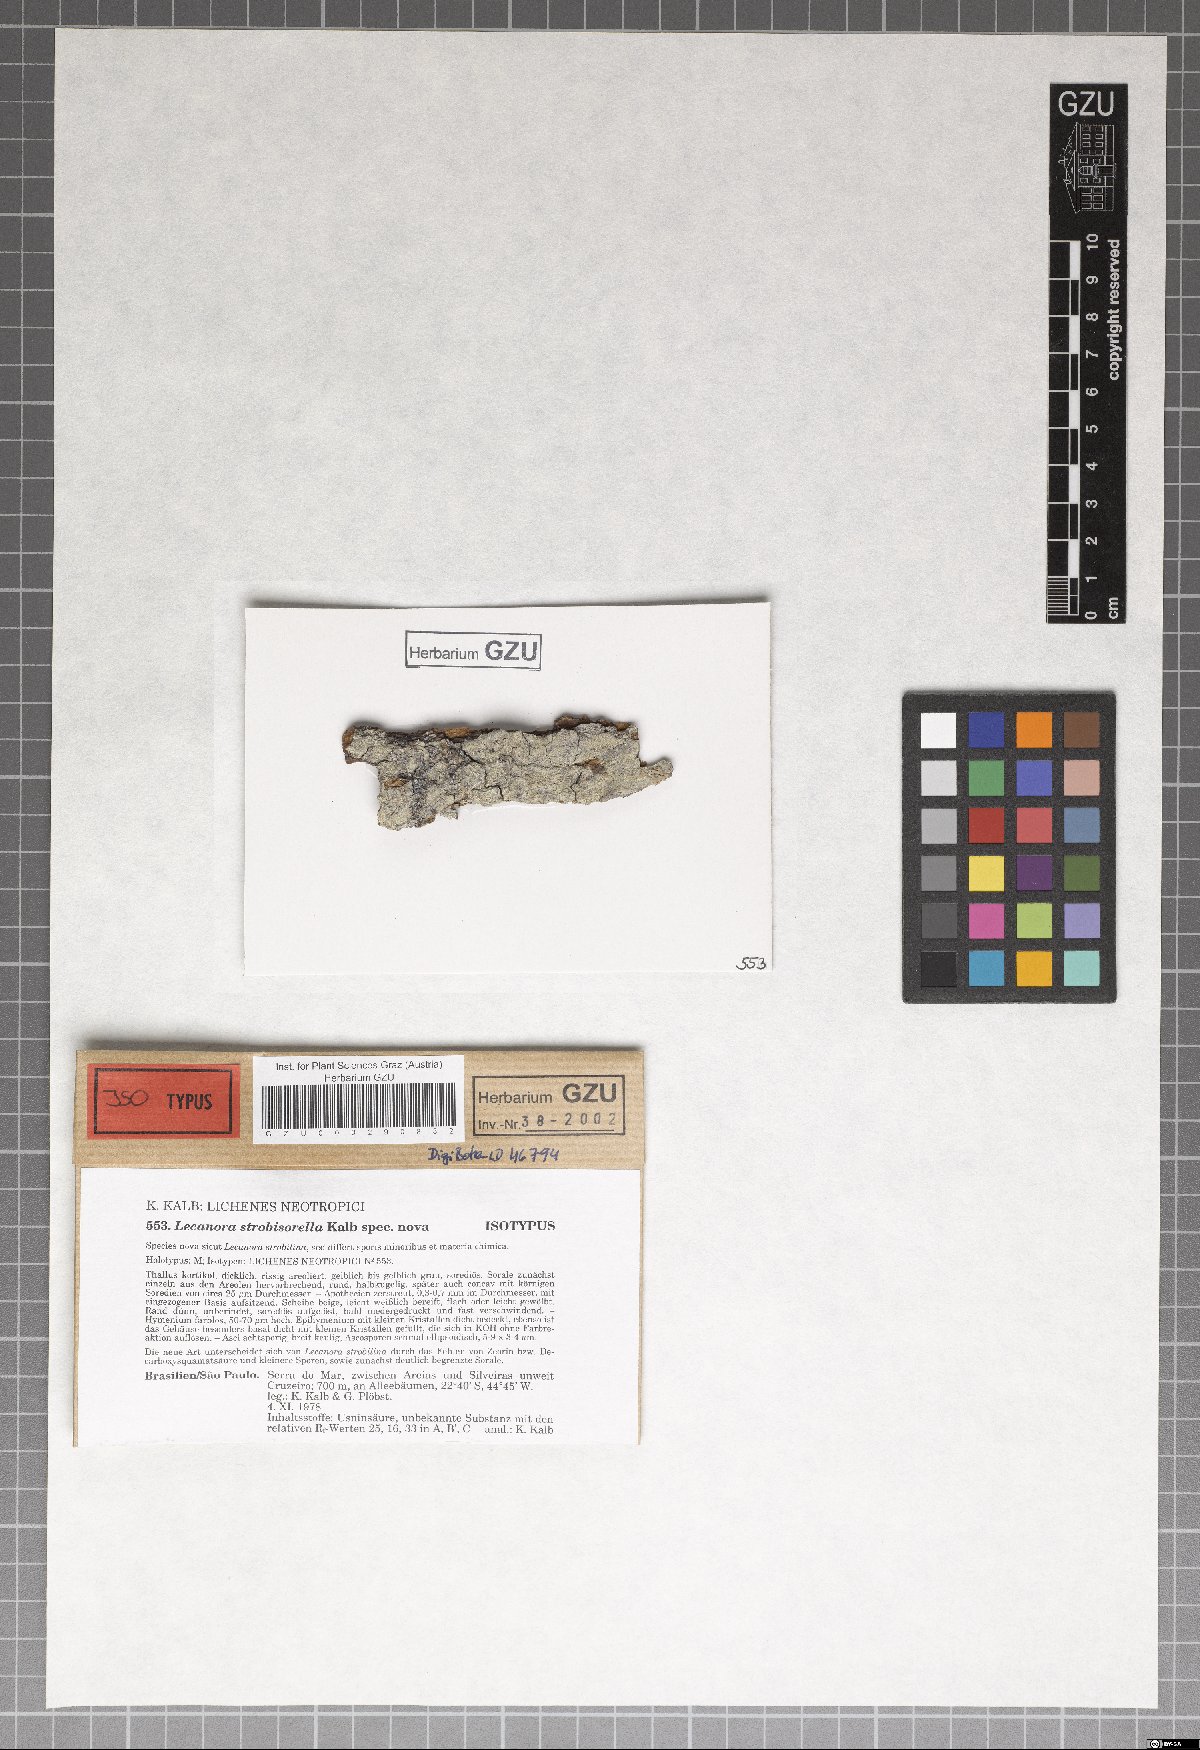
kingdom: Fungi
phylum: Ascomycota
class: Lecanoromycetes
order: Lecanorales
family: Lecanoraceae
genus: Lecanora
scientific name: Lecanora strobisorella
